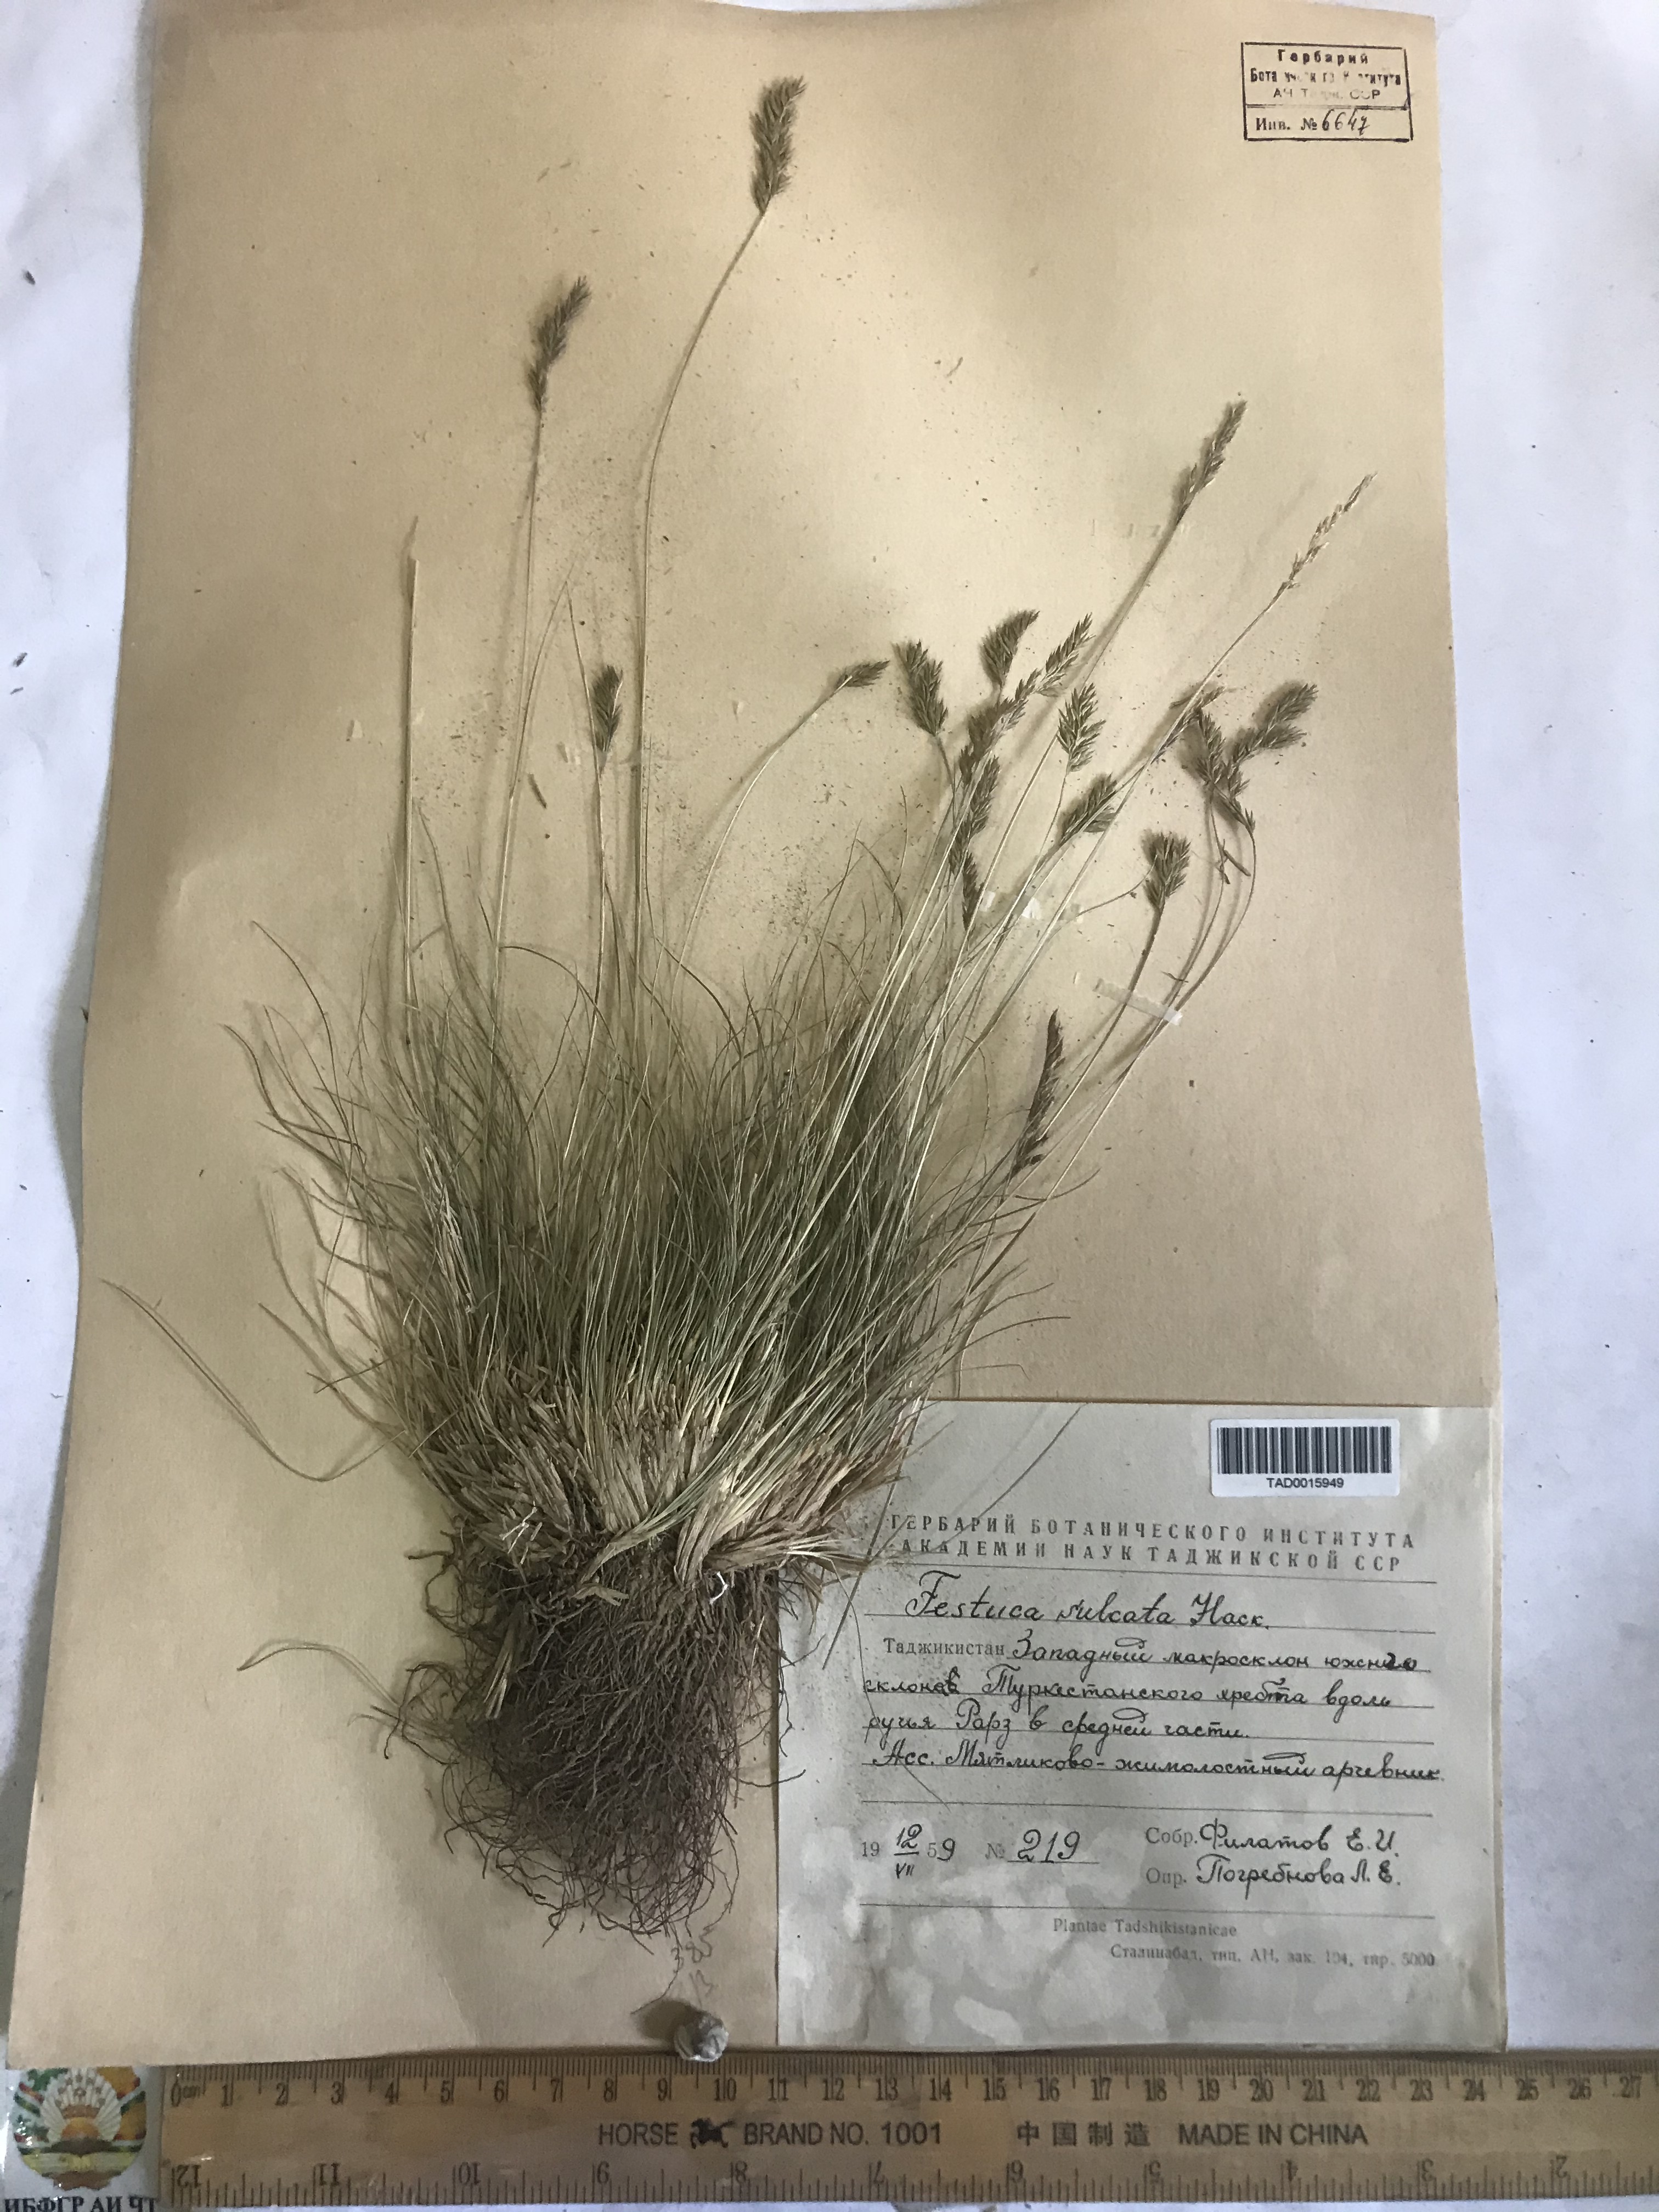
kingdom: Plantae
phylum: Tracheophyta
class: Liliopsida
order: Poales
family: Poaceae
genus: Festuca
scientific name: Festuca sulcata
